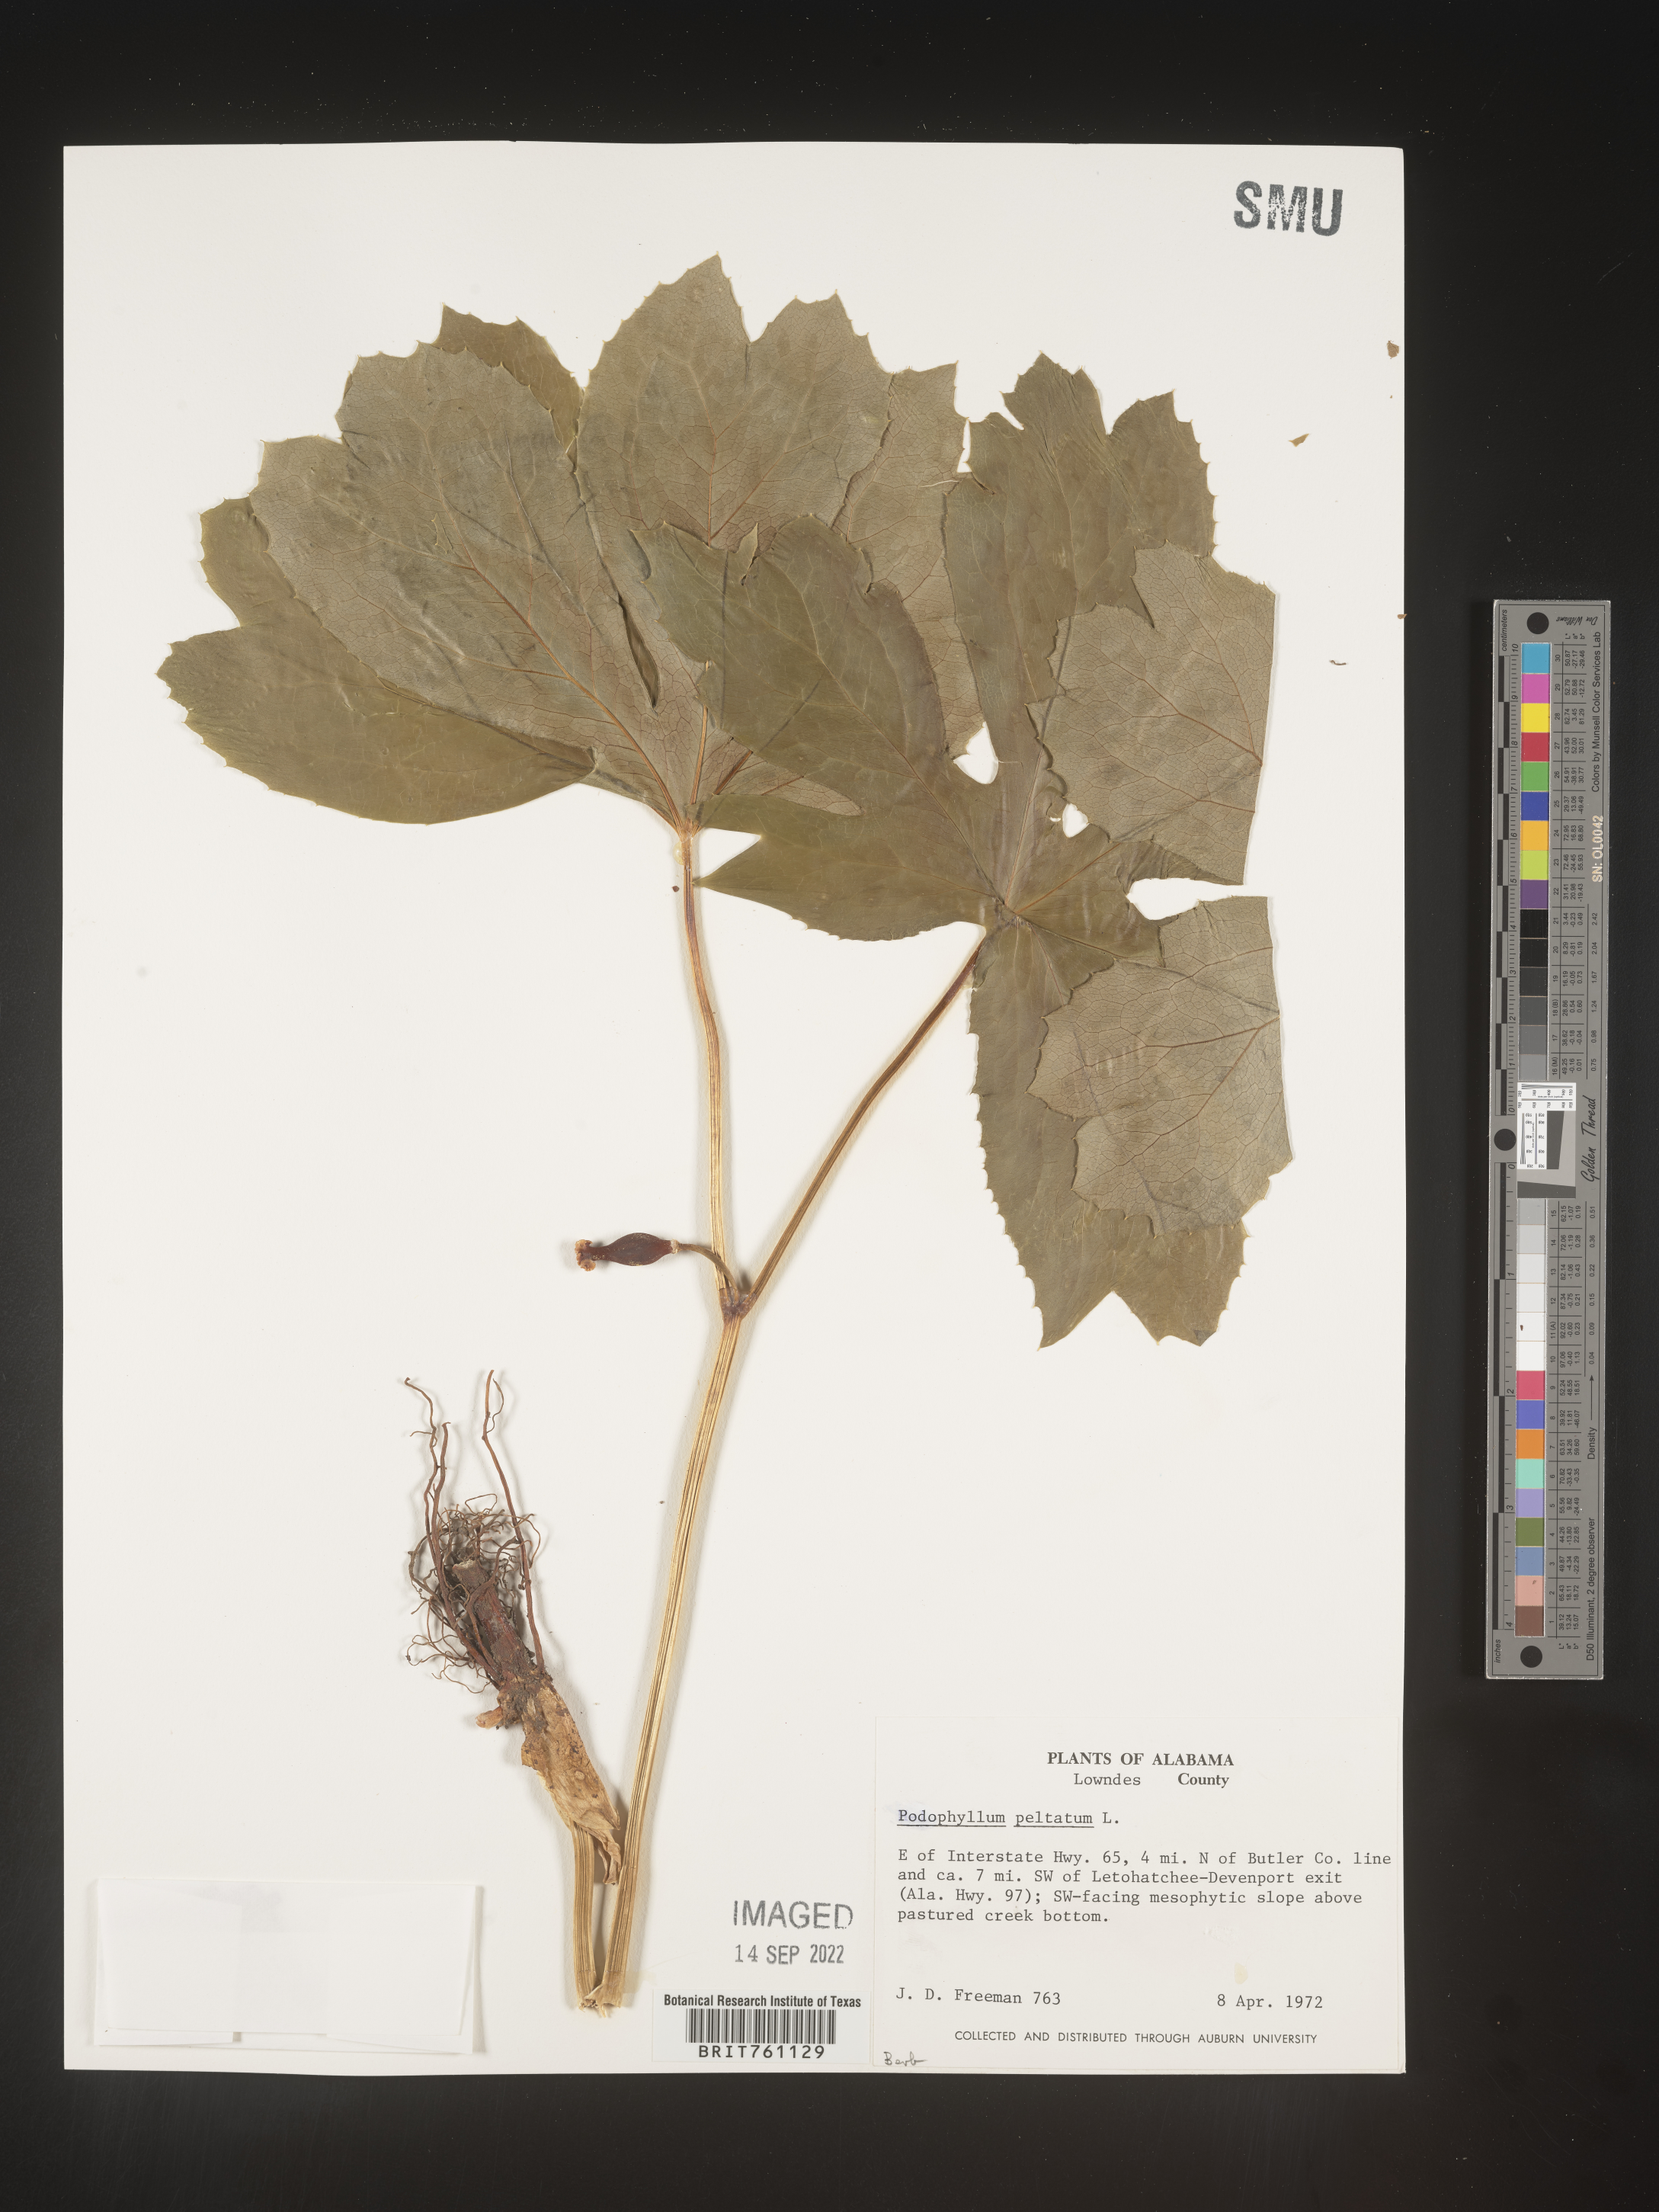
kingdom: Plantae
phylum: Tracheophyta
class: Magnoliopsida
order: Ranunculales
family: Berberidaceae
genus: Podophyllum
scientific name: Podophyllum peltatum
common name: Wild mandrake
